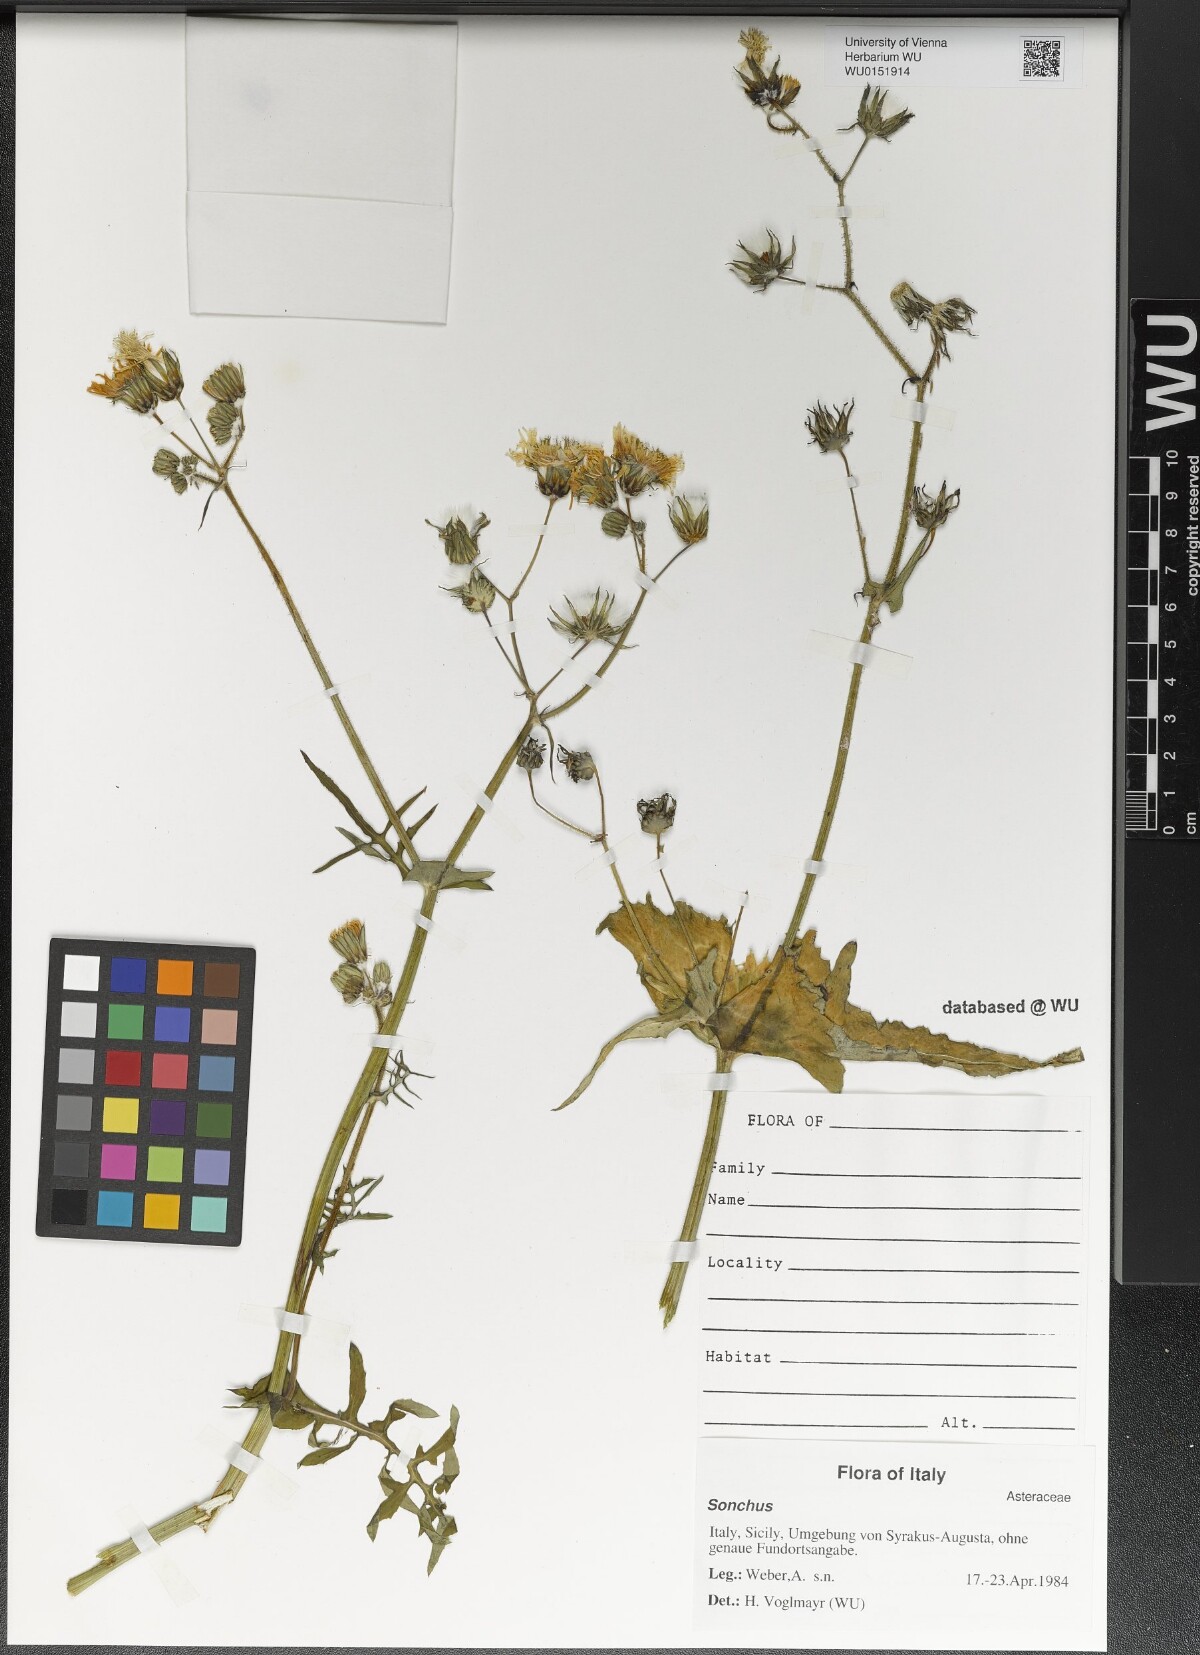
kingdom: Plantae
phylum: Tracheophyta
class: Magnoliopsida
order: Asterales
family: Asteraceae
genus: Sonchus
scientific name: Sonchus
